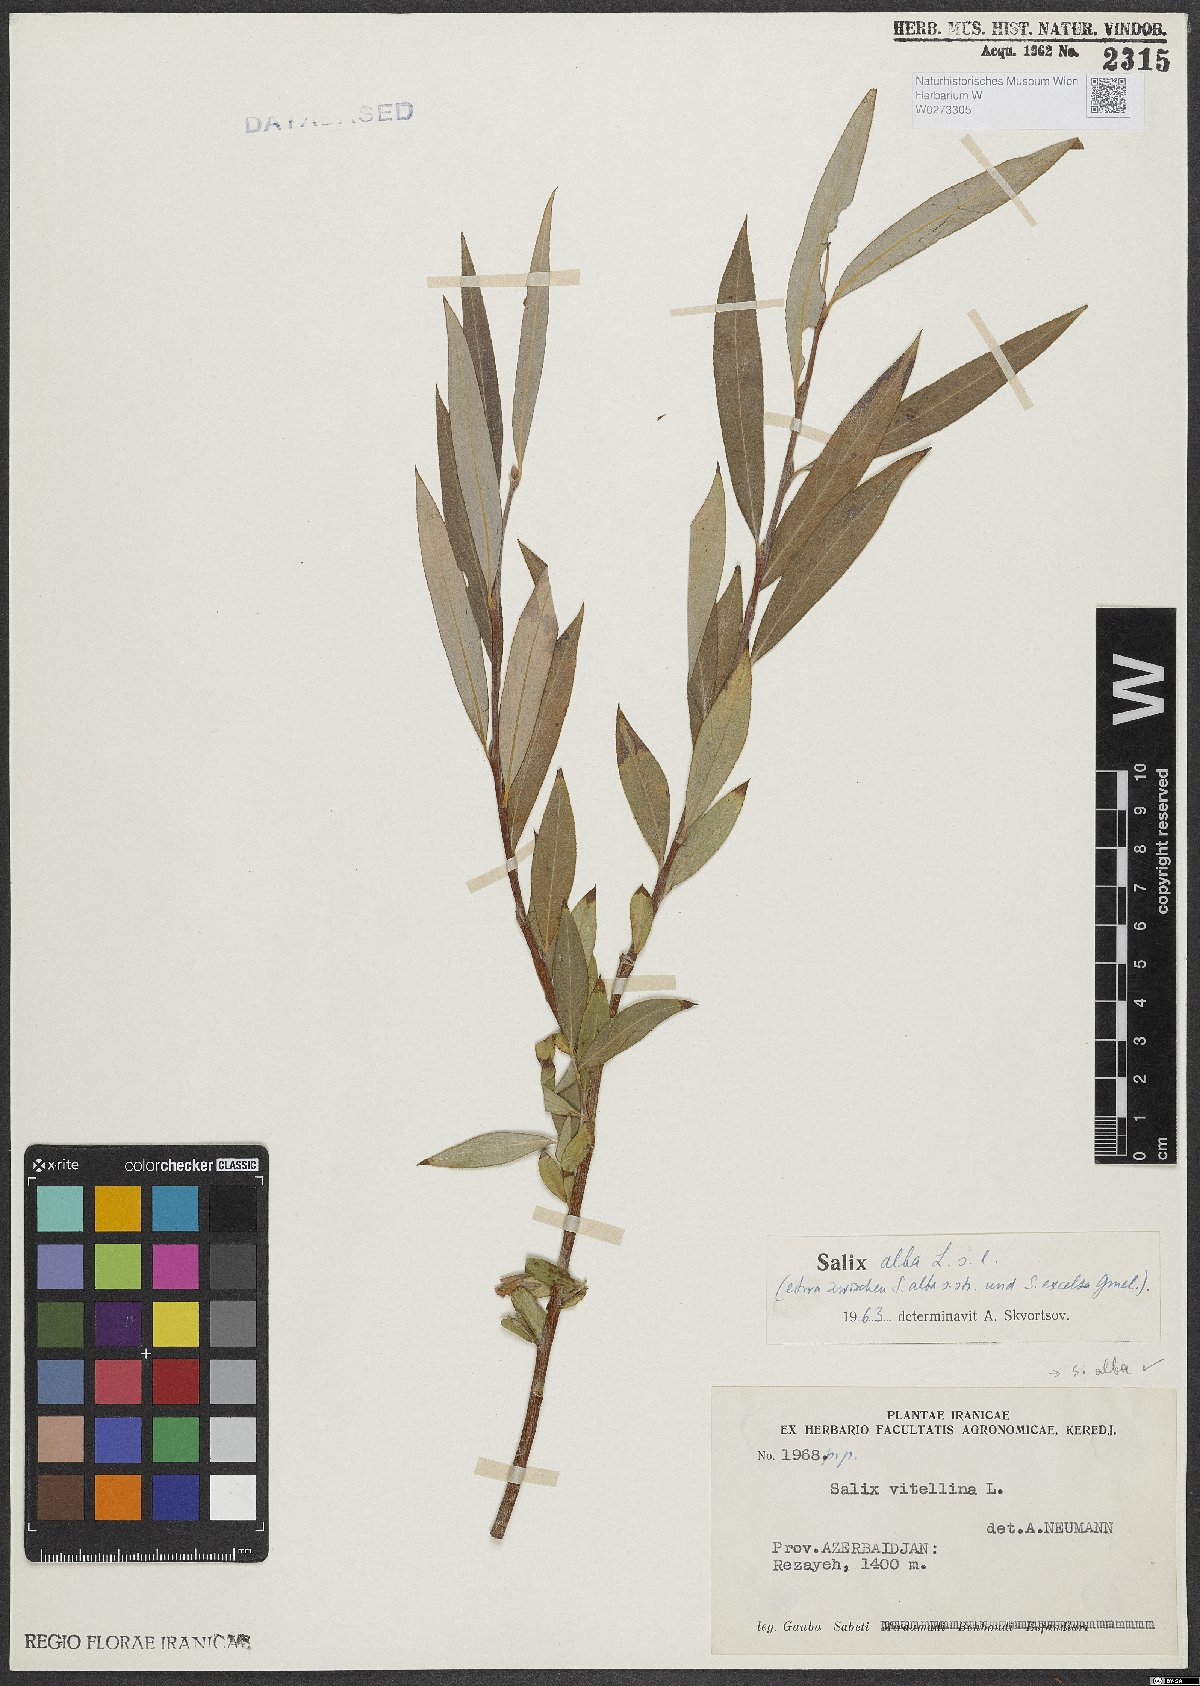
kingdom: Plantae
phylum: Tracheophyta
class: Magnoliopsida
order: Malpighiales
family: Salicaceae
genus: Salix
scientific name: Salix alba
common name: White willow
